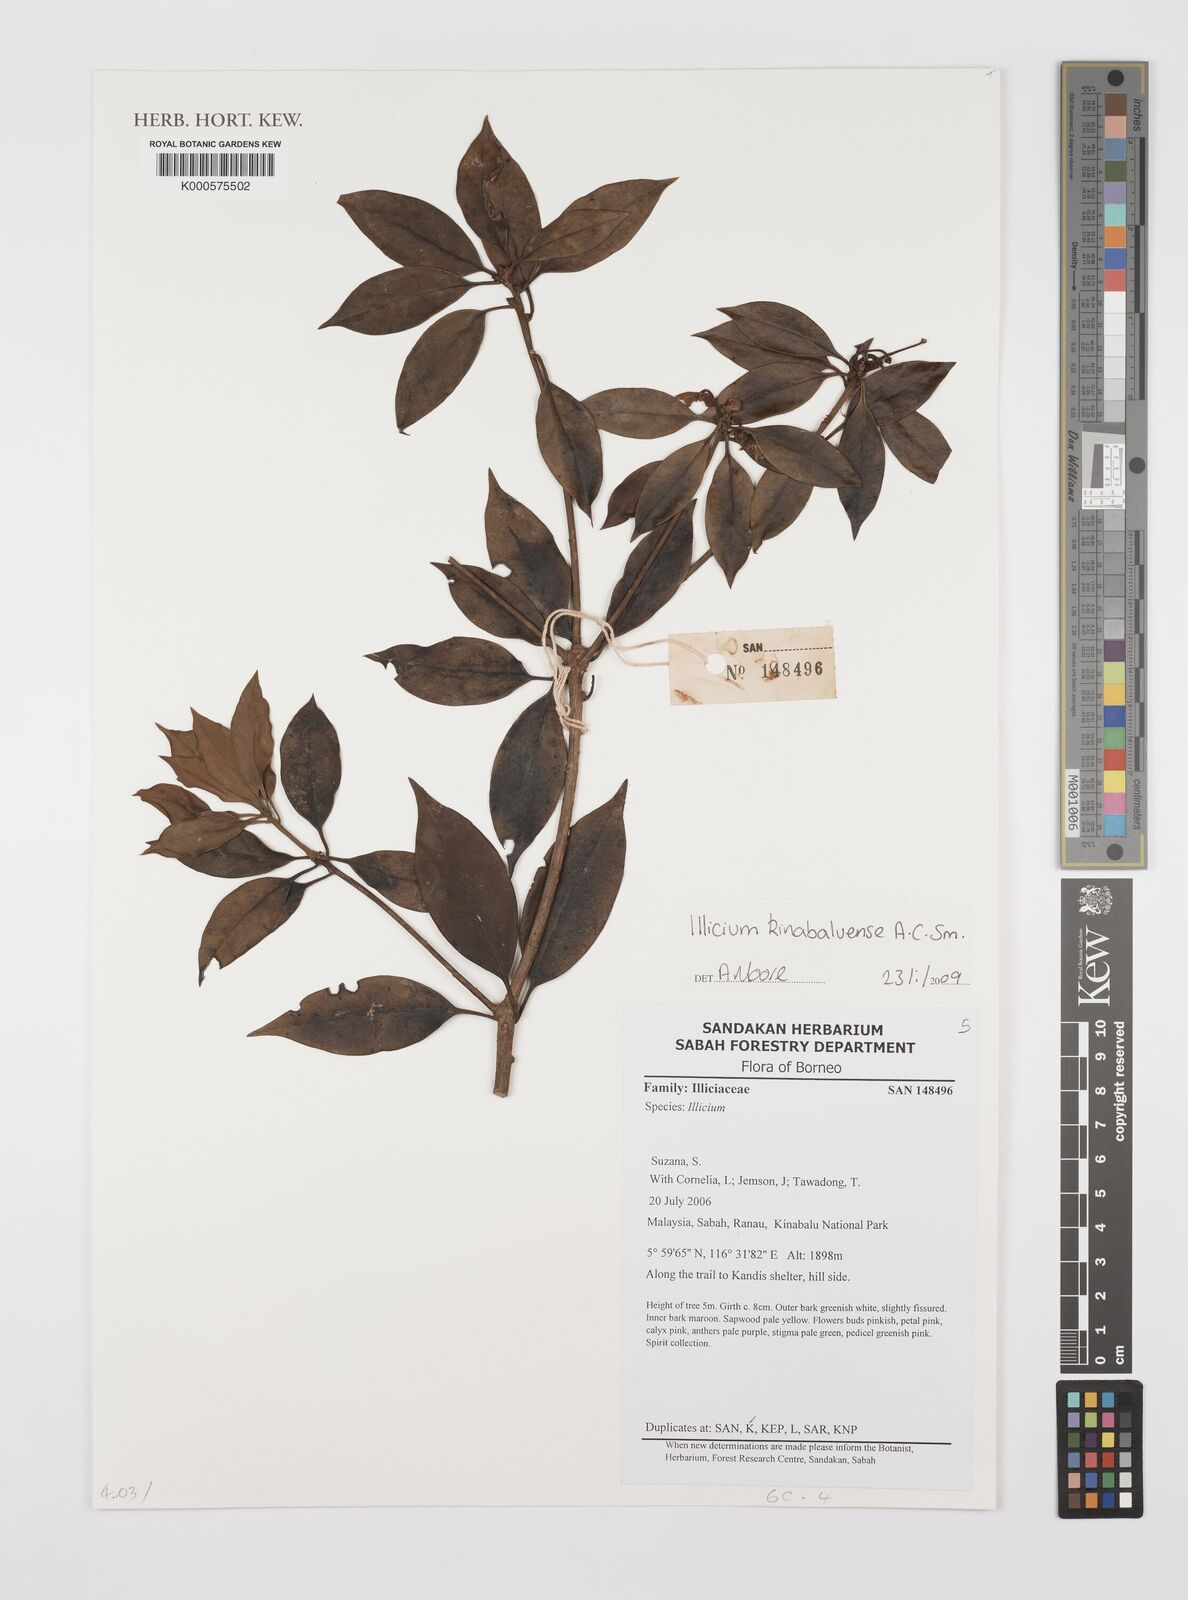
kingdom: Plantae
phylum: Tracheophyta
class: Magnoliopsida
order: Austrobaileyales
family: Schisandraceae
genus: Illicium
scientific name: Illicium stapfii
